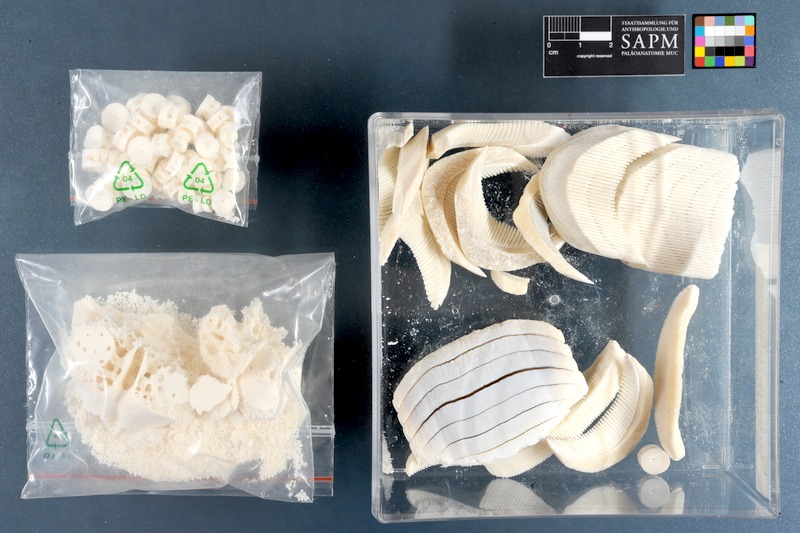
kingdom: Animalia
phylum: Chordata
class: Elasmobranchii
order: Myliobatiformes
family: Myliobatidae
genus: Aetobatus
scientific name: Aetobatus narinari
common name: Spotted eagle ray
